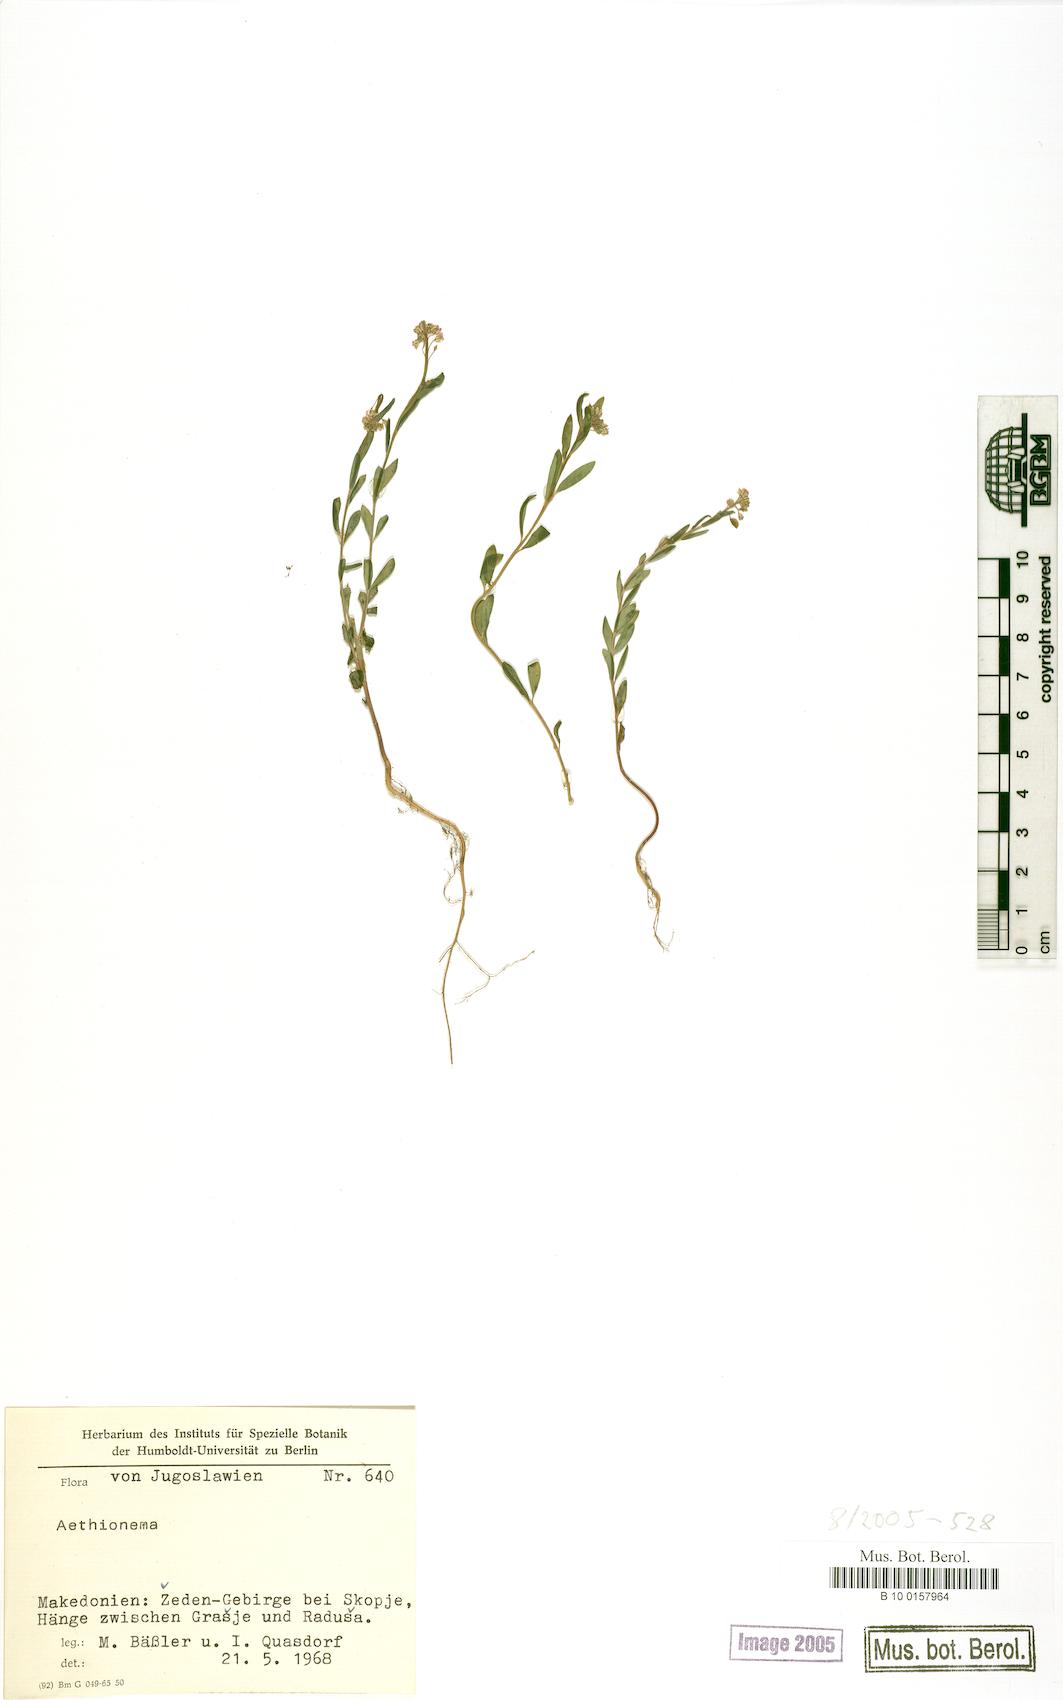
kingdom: Plantae
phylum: Tracheophyta
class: Magnoliopsida
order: Brassicales
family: Brassicaceae
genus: Aethionema
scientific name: Aethionema
